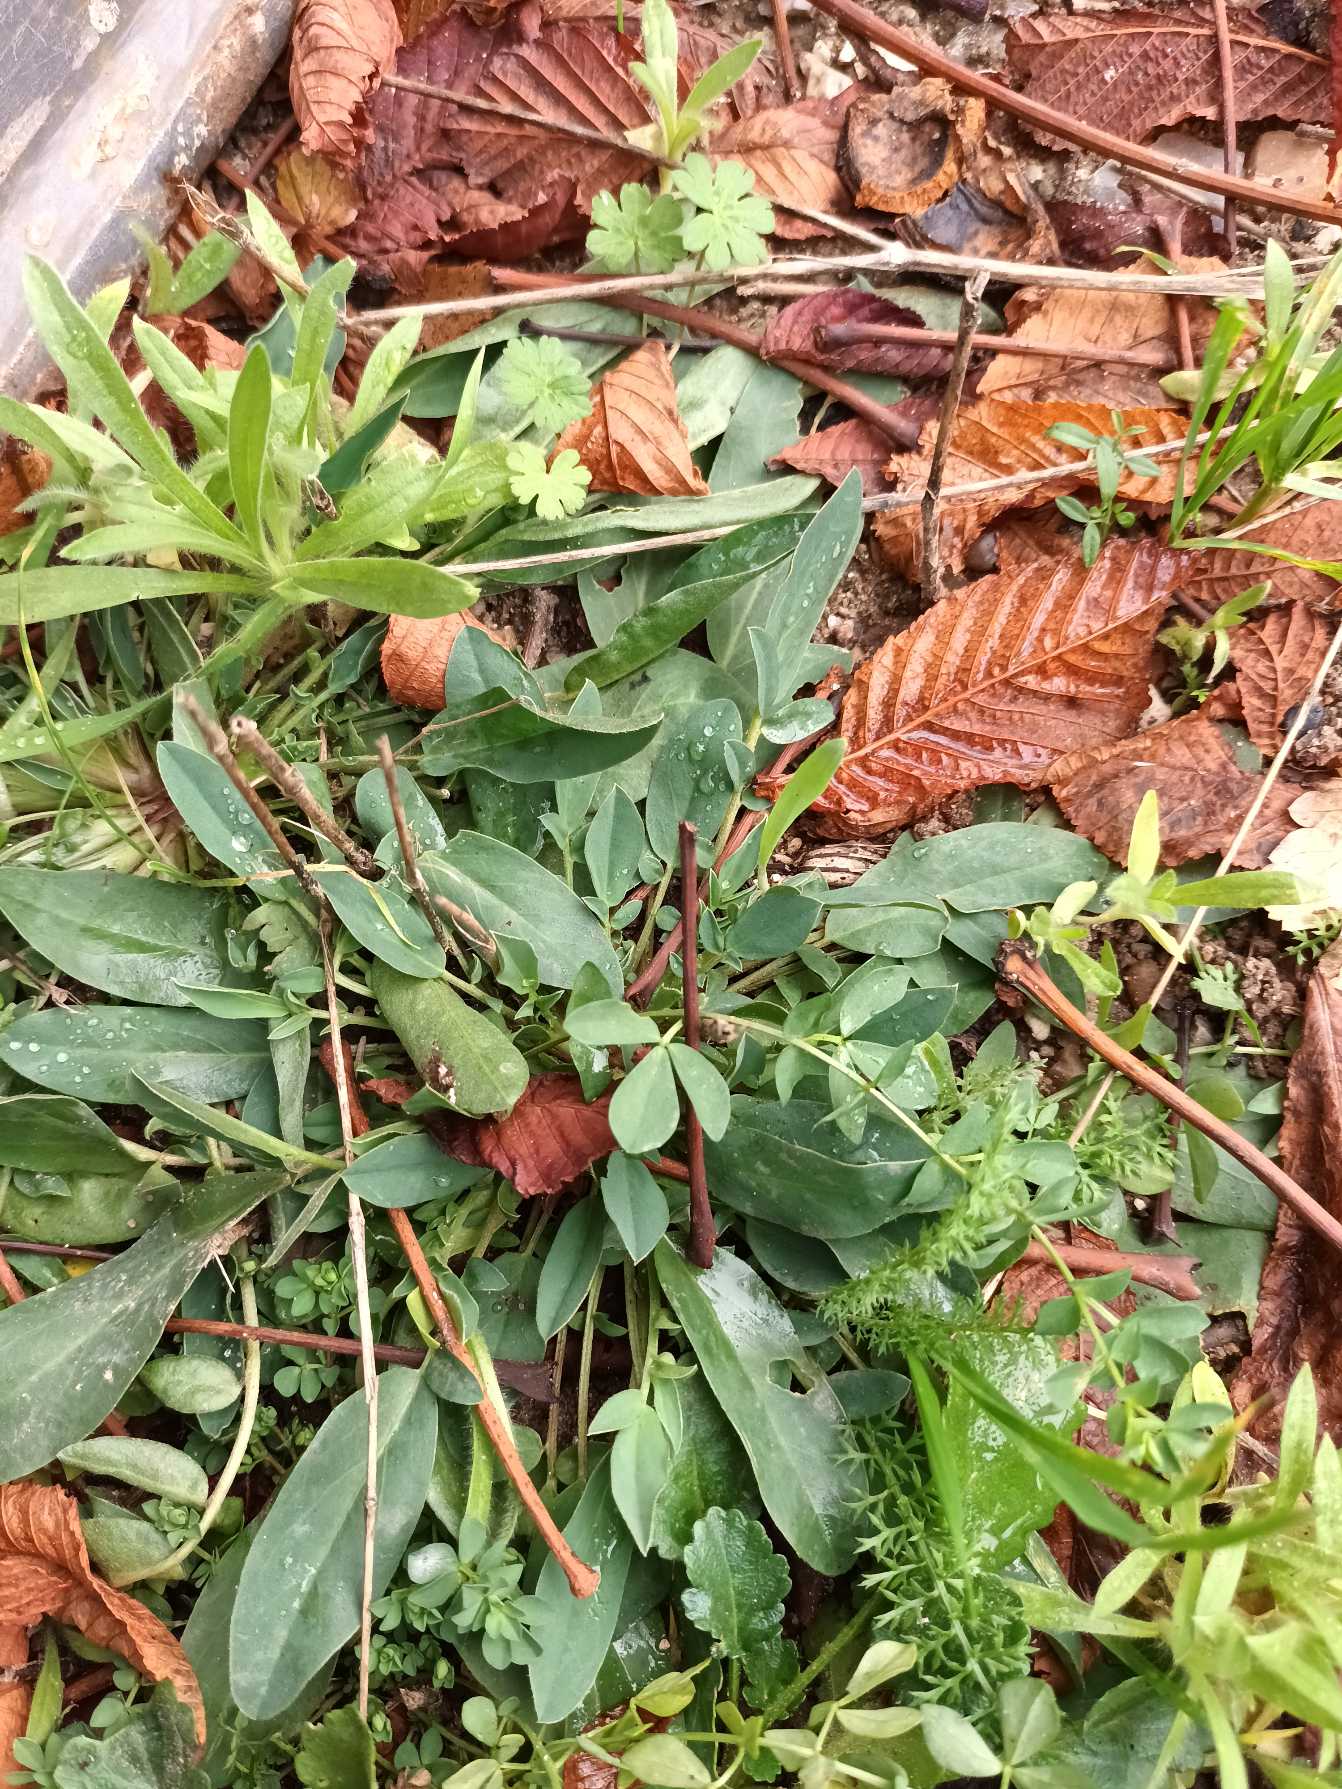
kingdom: Plantae
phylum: Tracheophyta
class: Magnoliopsida
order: Fabales
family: Fabaceae
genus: Anthyllis
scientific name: Anthyllis vulneraria
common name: Rundbælg
